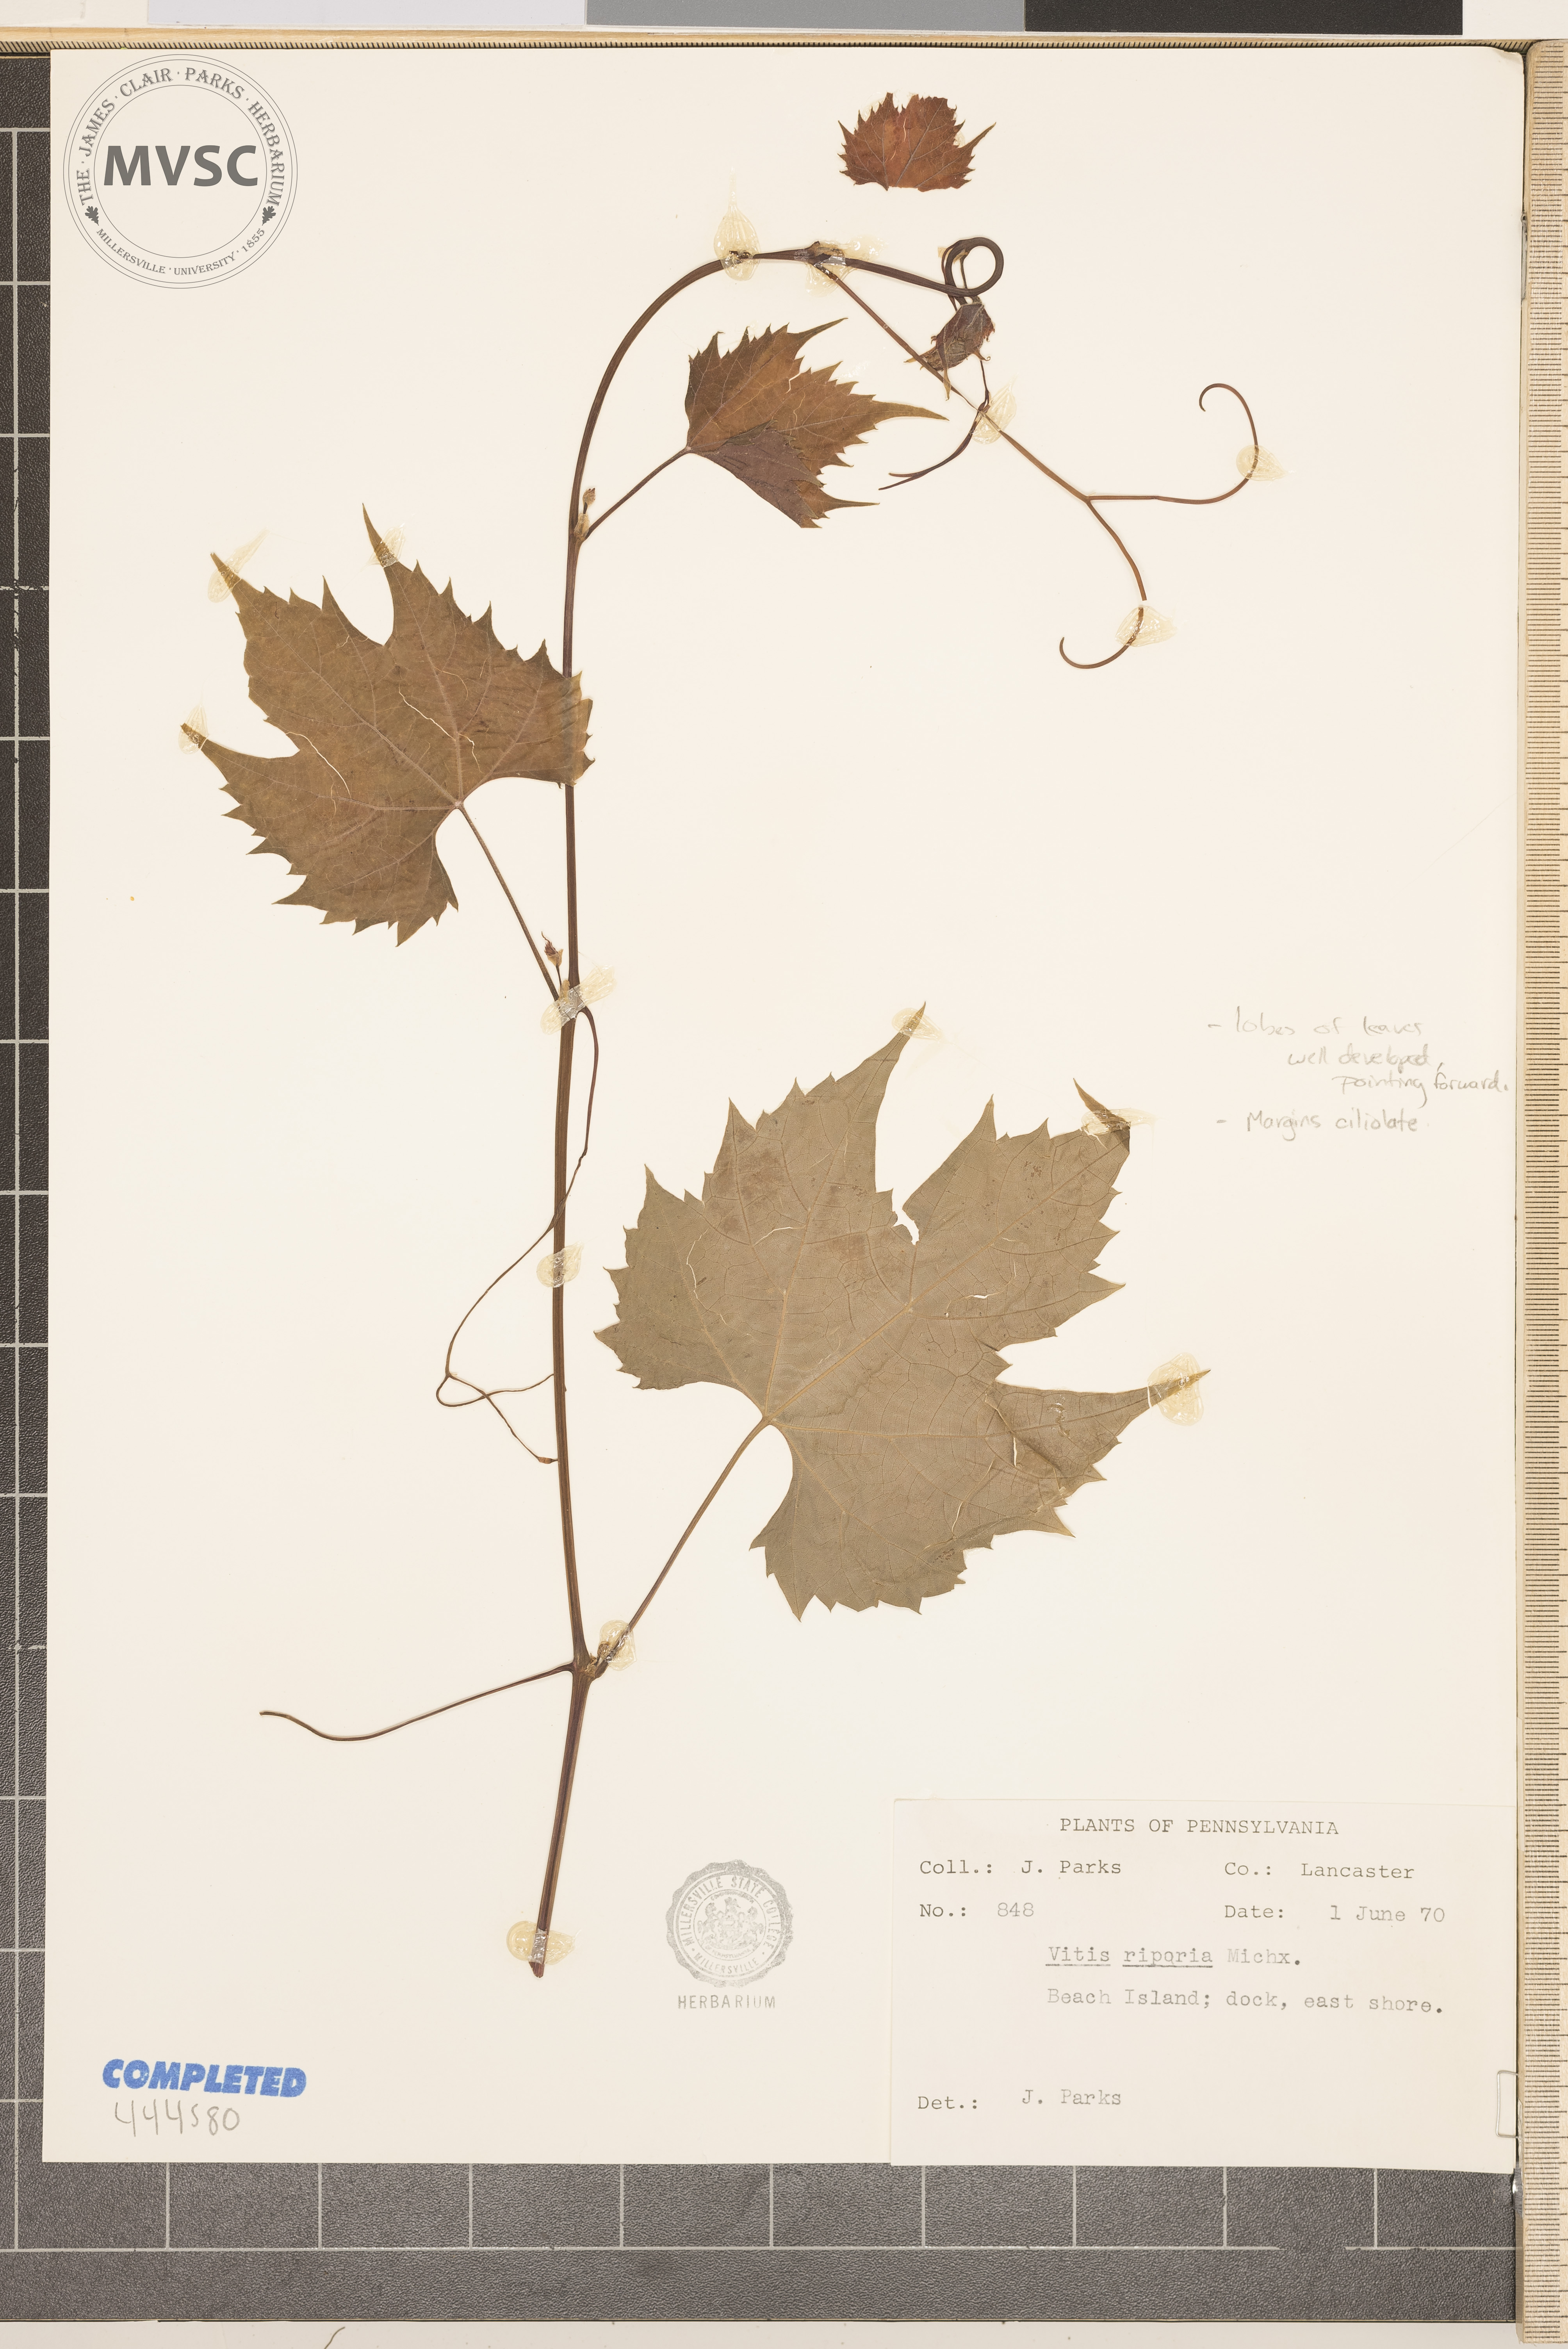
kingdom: Plantae
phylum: Tracheophyta
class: Magnoliopsida
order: Vitales
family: Vitaceae
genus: Vitis
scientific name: Vitis riparia
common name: Frost grape
